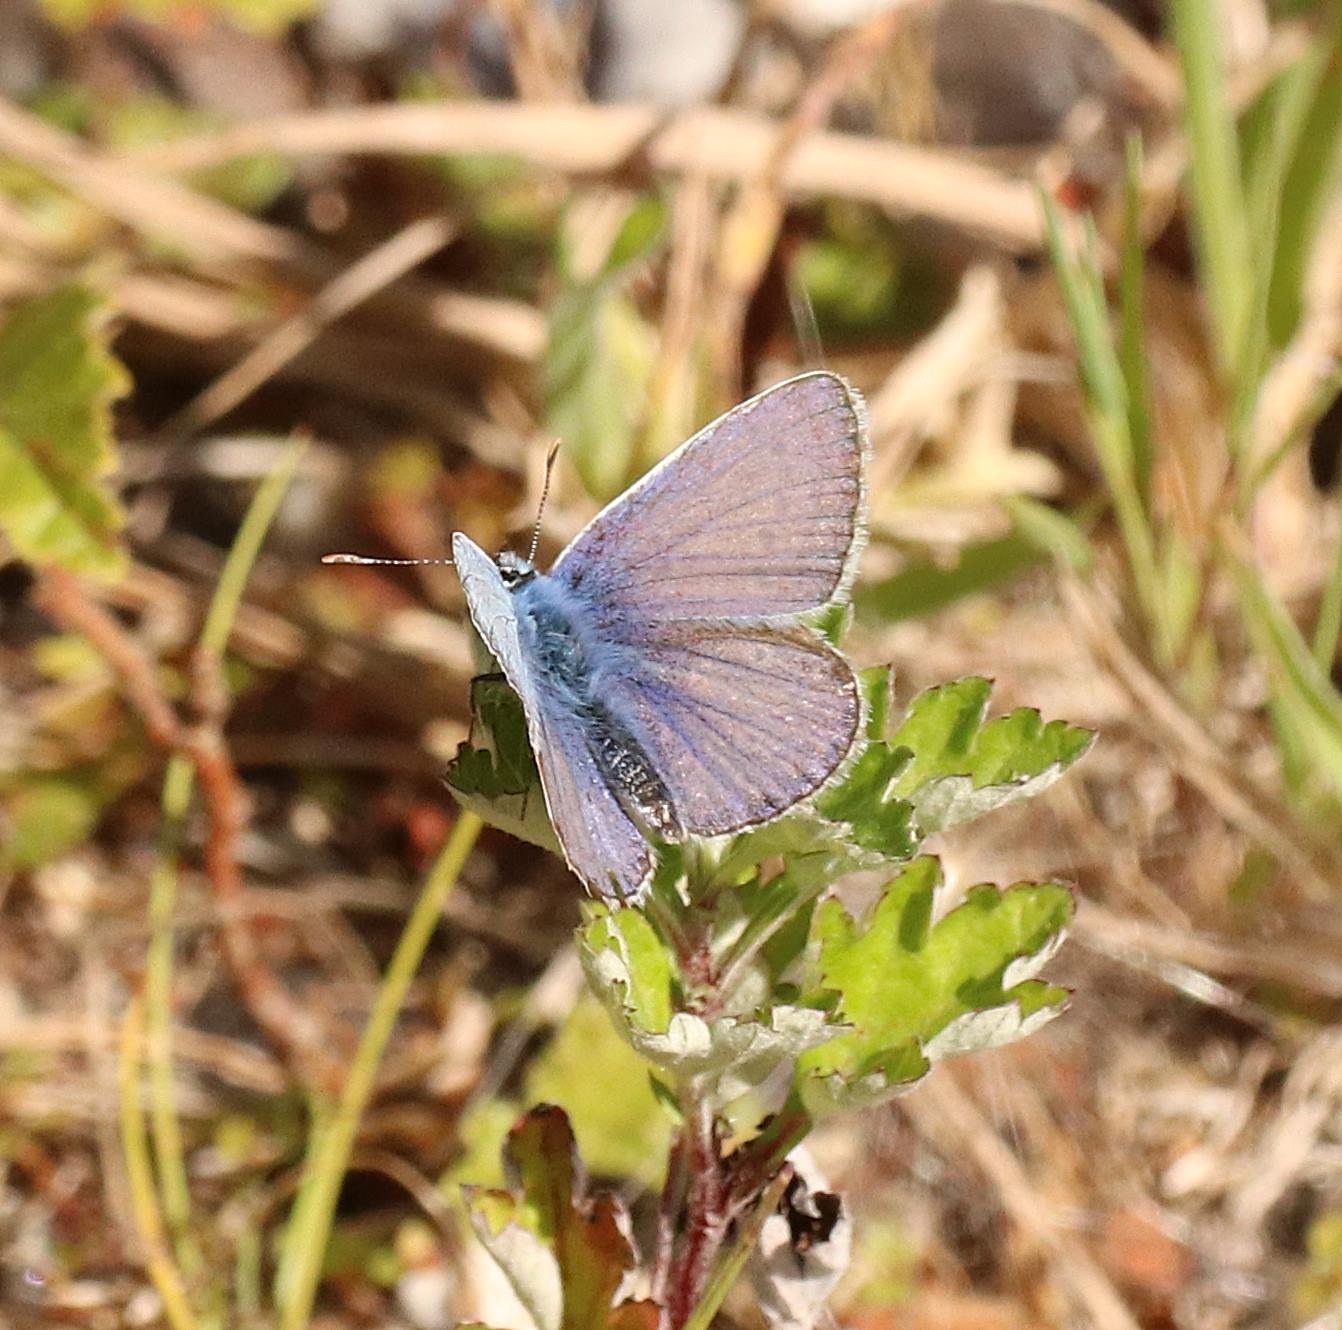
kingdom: Animalia
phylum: Arthropoda
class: Insecta
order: Lepidoptera
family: Lycaenidae
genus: Polyommatus
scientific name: Polyommatus icarus
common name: Almindelig blåfugl
